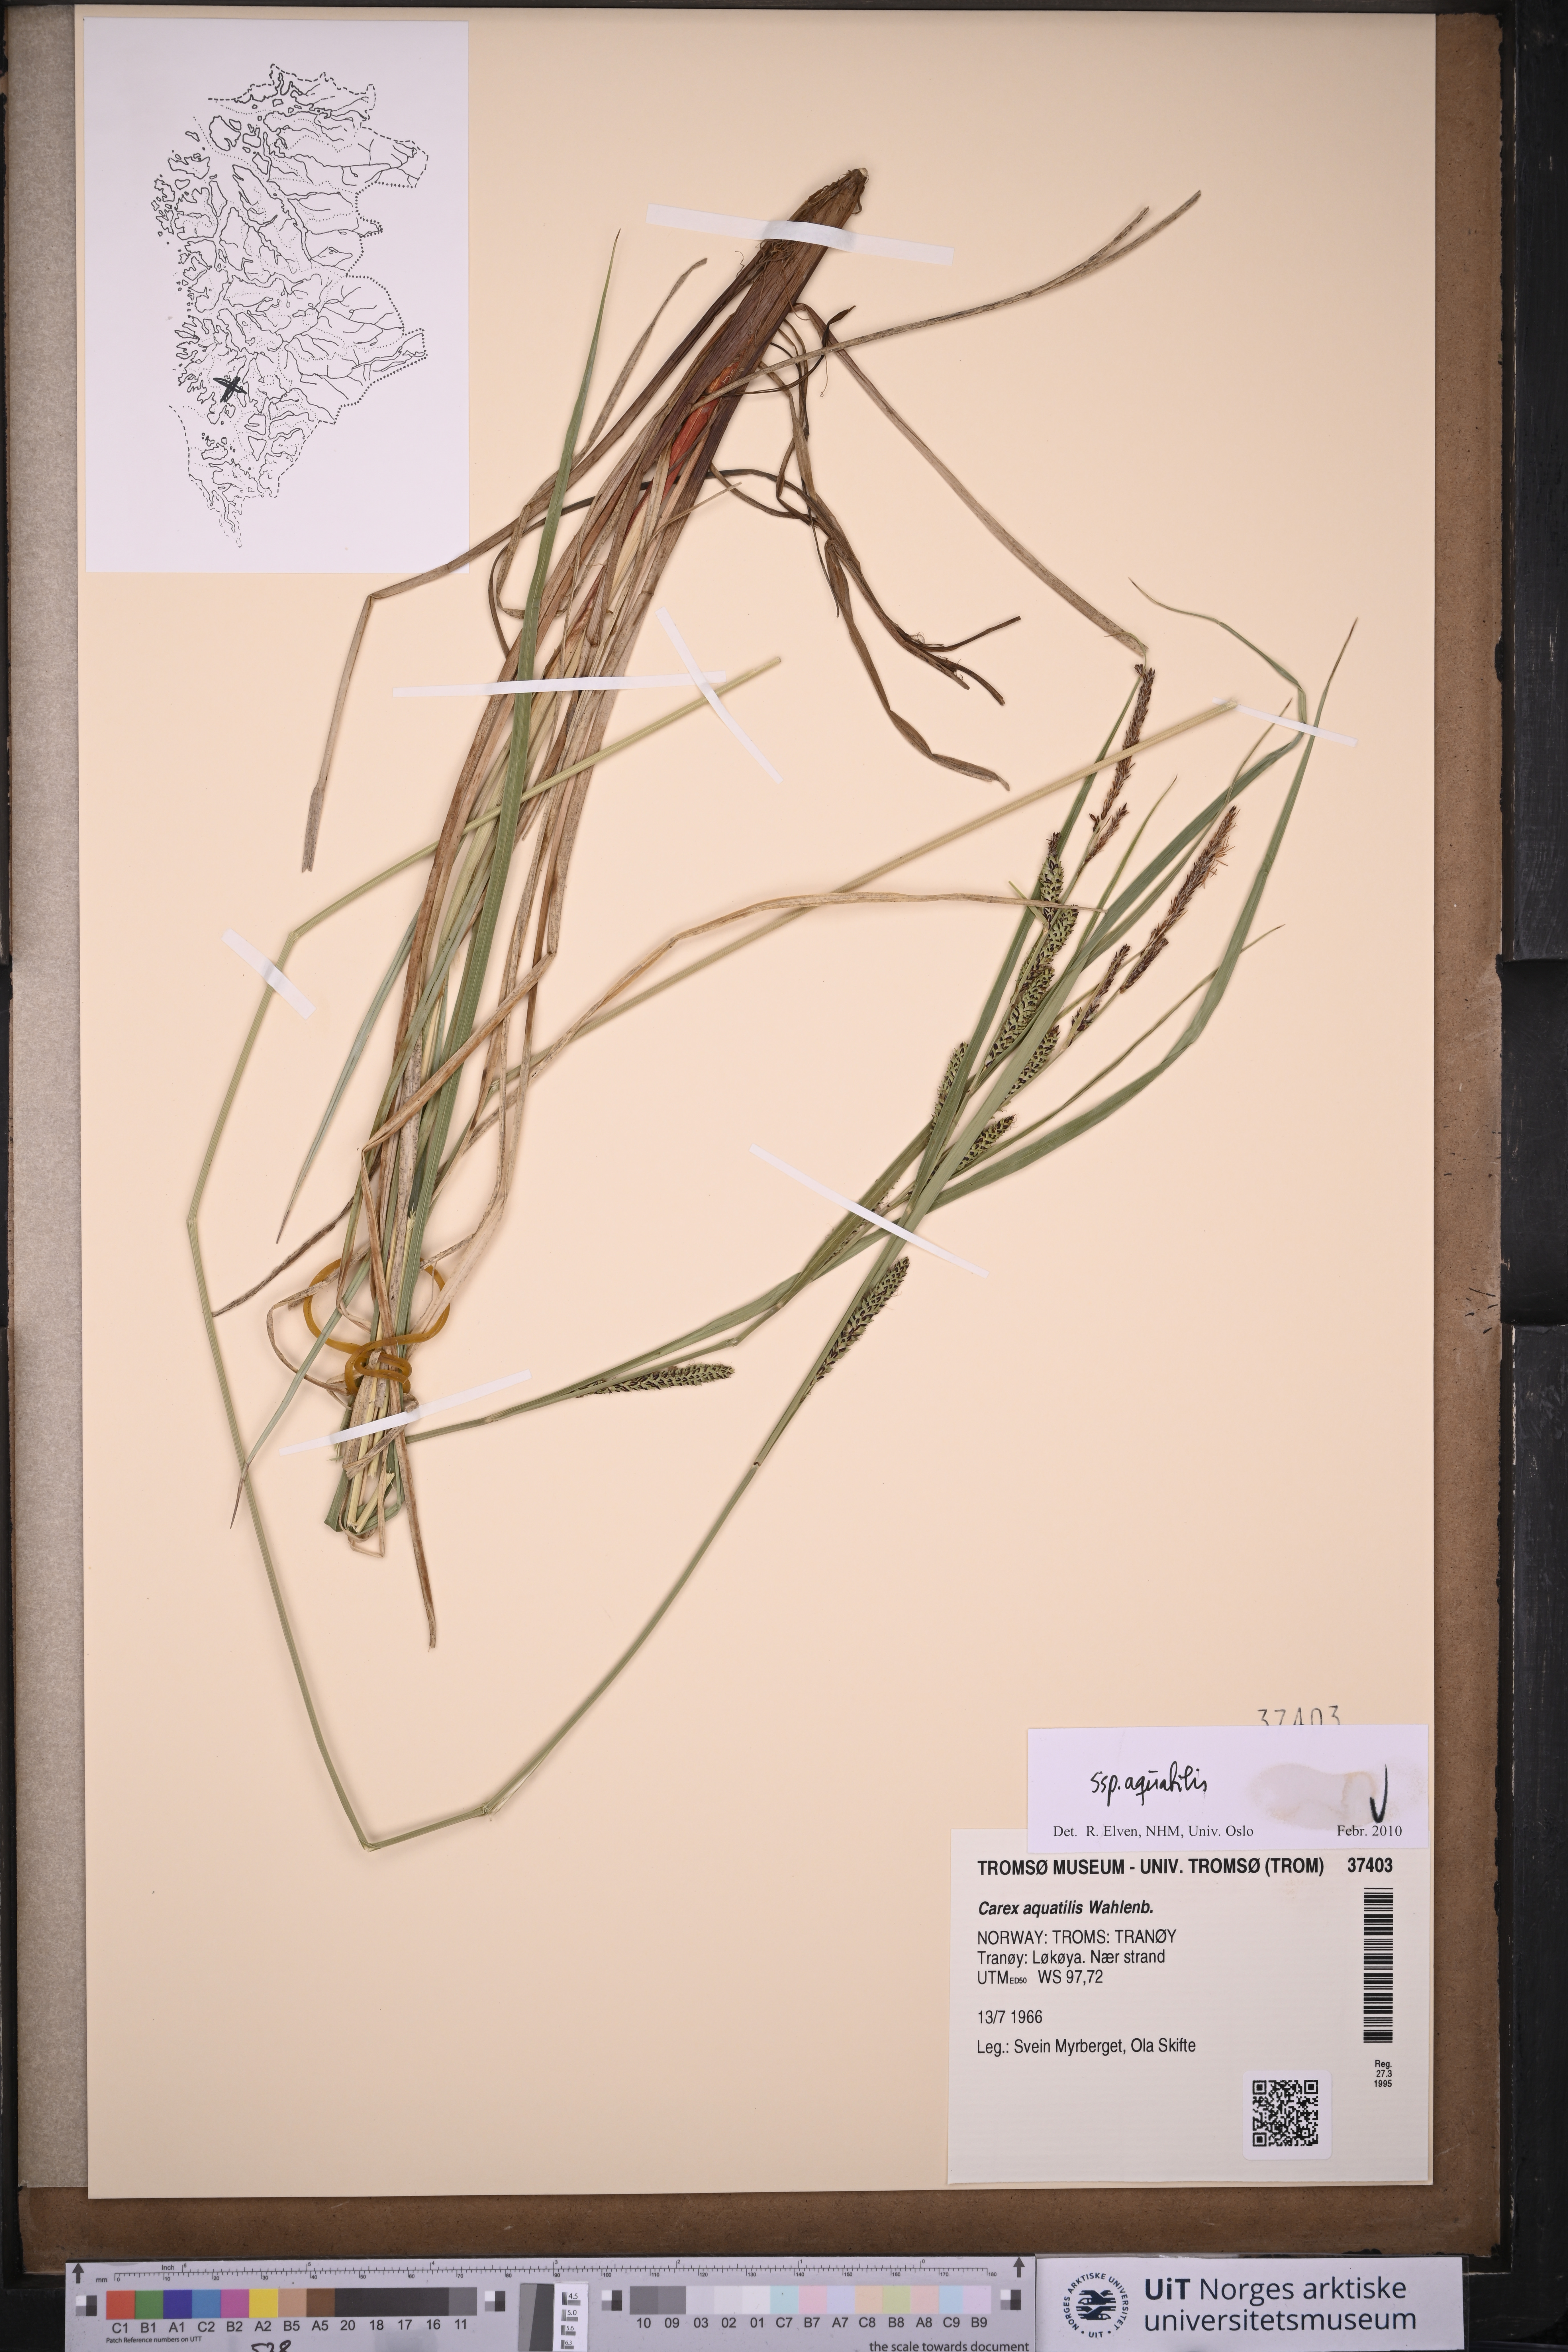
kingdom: Plantae
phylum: Tracheophyta
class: Liliopsida
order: Poales
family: Cyperaceae
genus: Carex
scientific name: Carex aquatilis
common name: Water sedge
